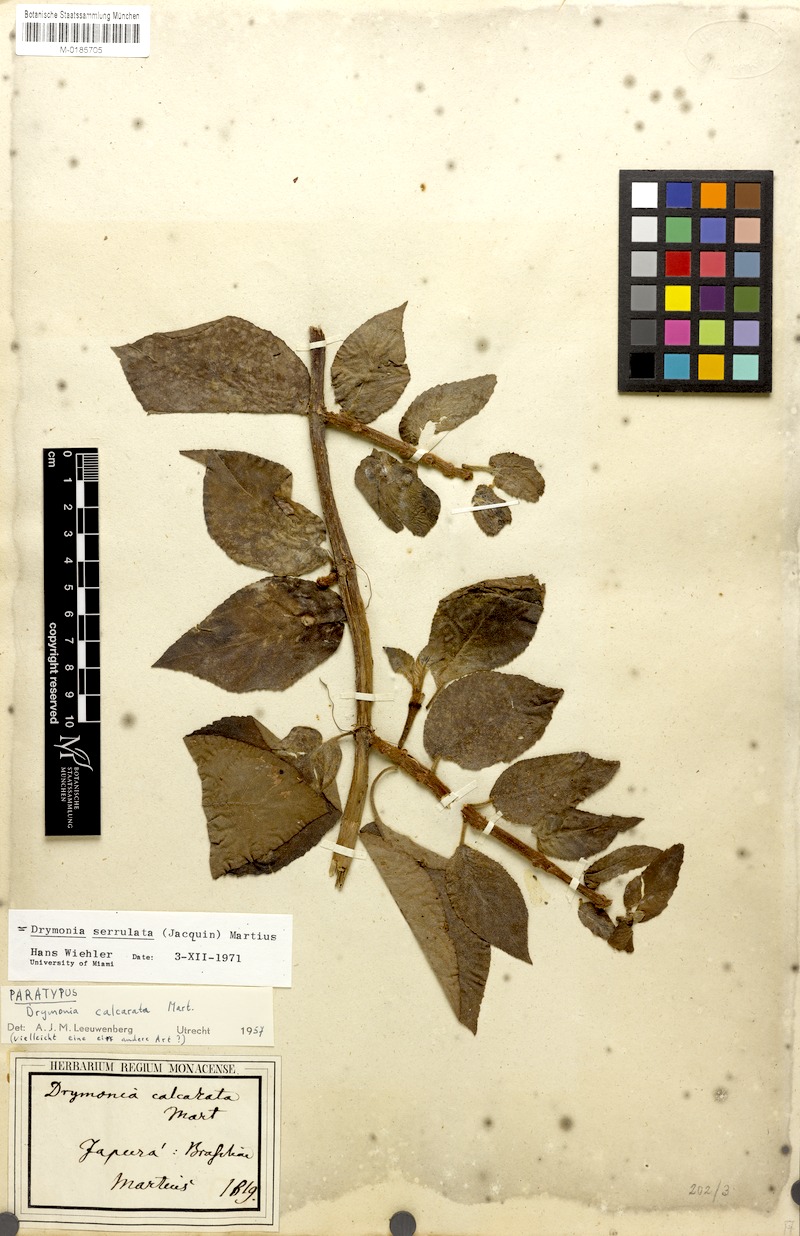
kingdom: Plantae
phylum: Tracheophyta
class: Magnoliopsida
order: Lamiales
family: Gesneriaceae
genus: Drymonia
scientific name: Drymonia serrulata
